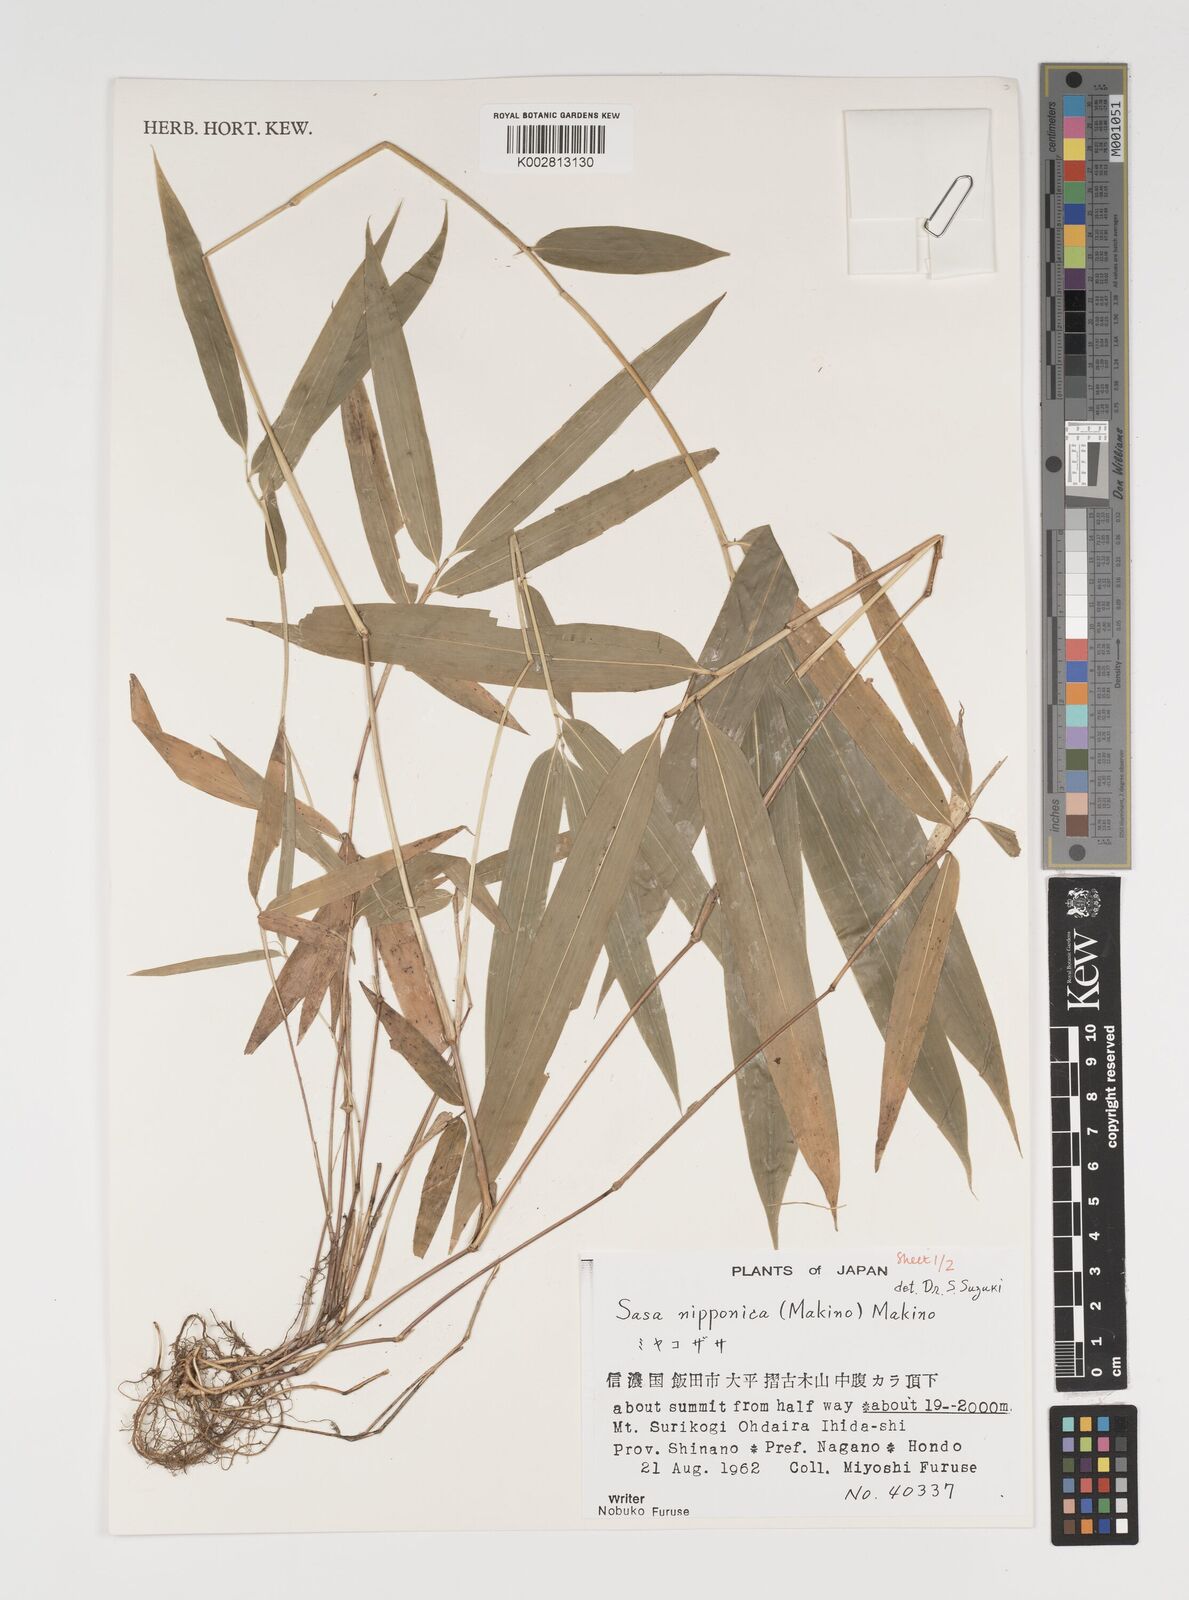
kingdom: Plantae
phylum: Tracheophyta
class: Liliopsida
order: Poales
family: Poaceae
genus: Sasa
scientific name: Sasa nipponica
